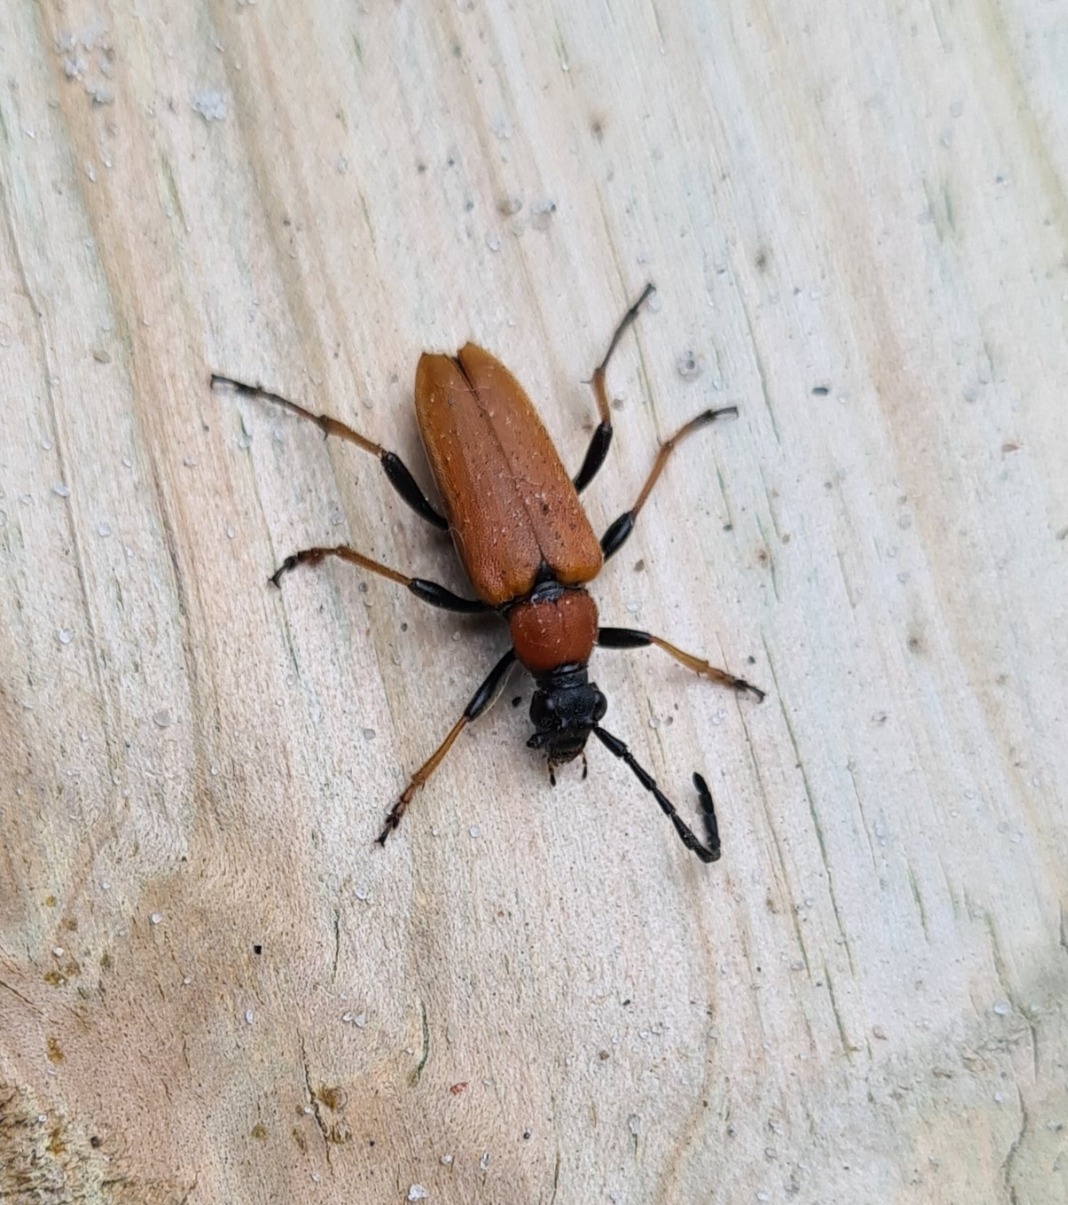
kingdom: Animalia
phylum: Arthropoda
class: Insecta
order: Coleoptera
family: Cerambycidae
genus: Stictoleptura
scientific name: Stictoleptura rubra
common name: Rød blomsterbuk
